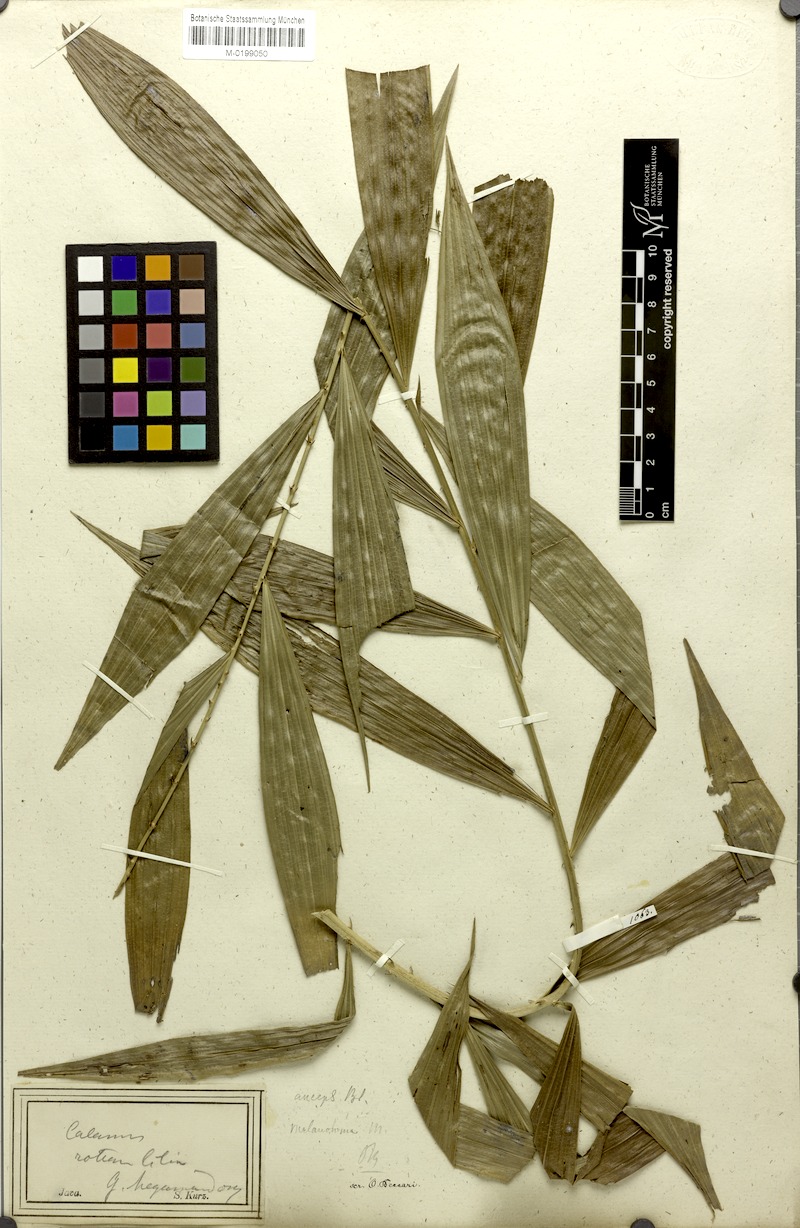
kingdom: Plantae
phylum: Tracheophyta
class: Liliopsida
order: Arecales
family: Arecaceae
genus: Calamus
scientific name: Calamus melanoloma
